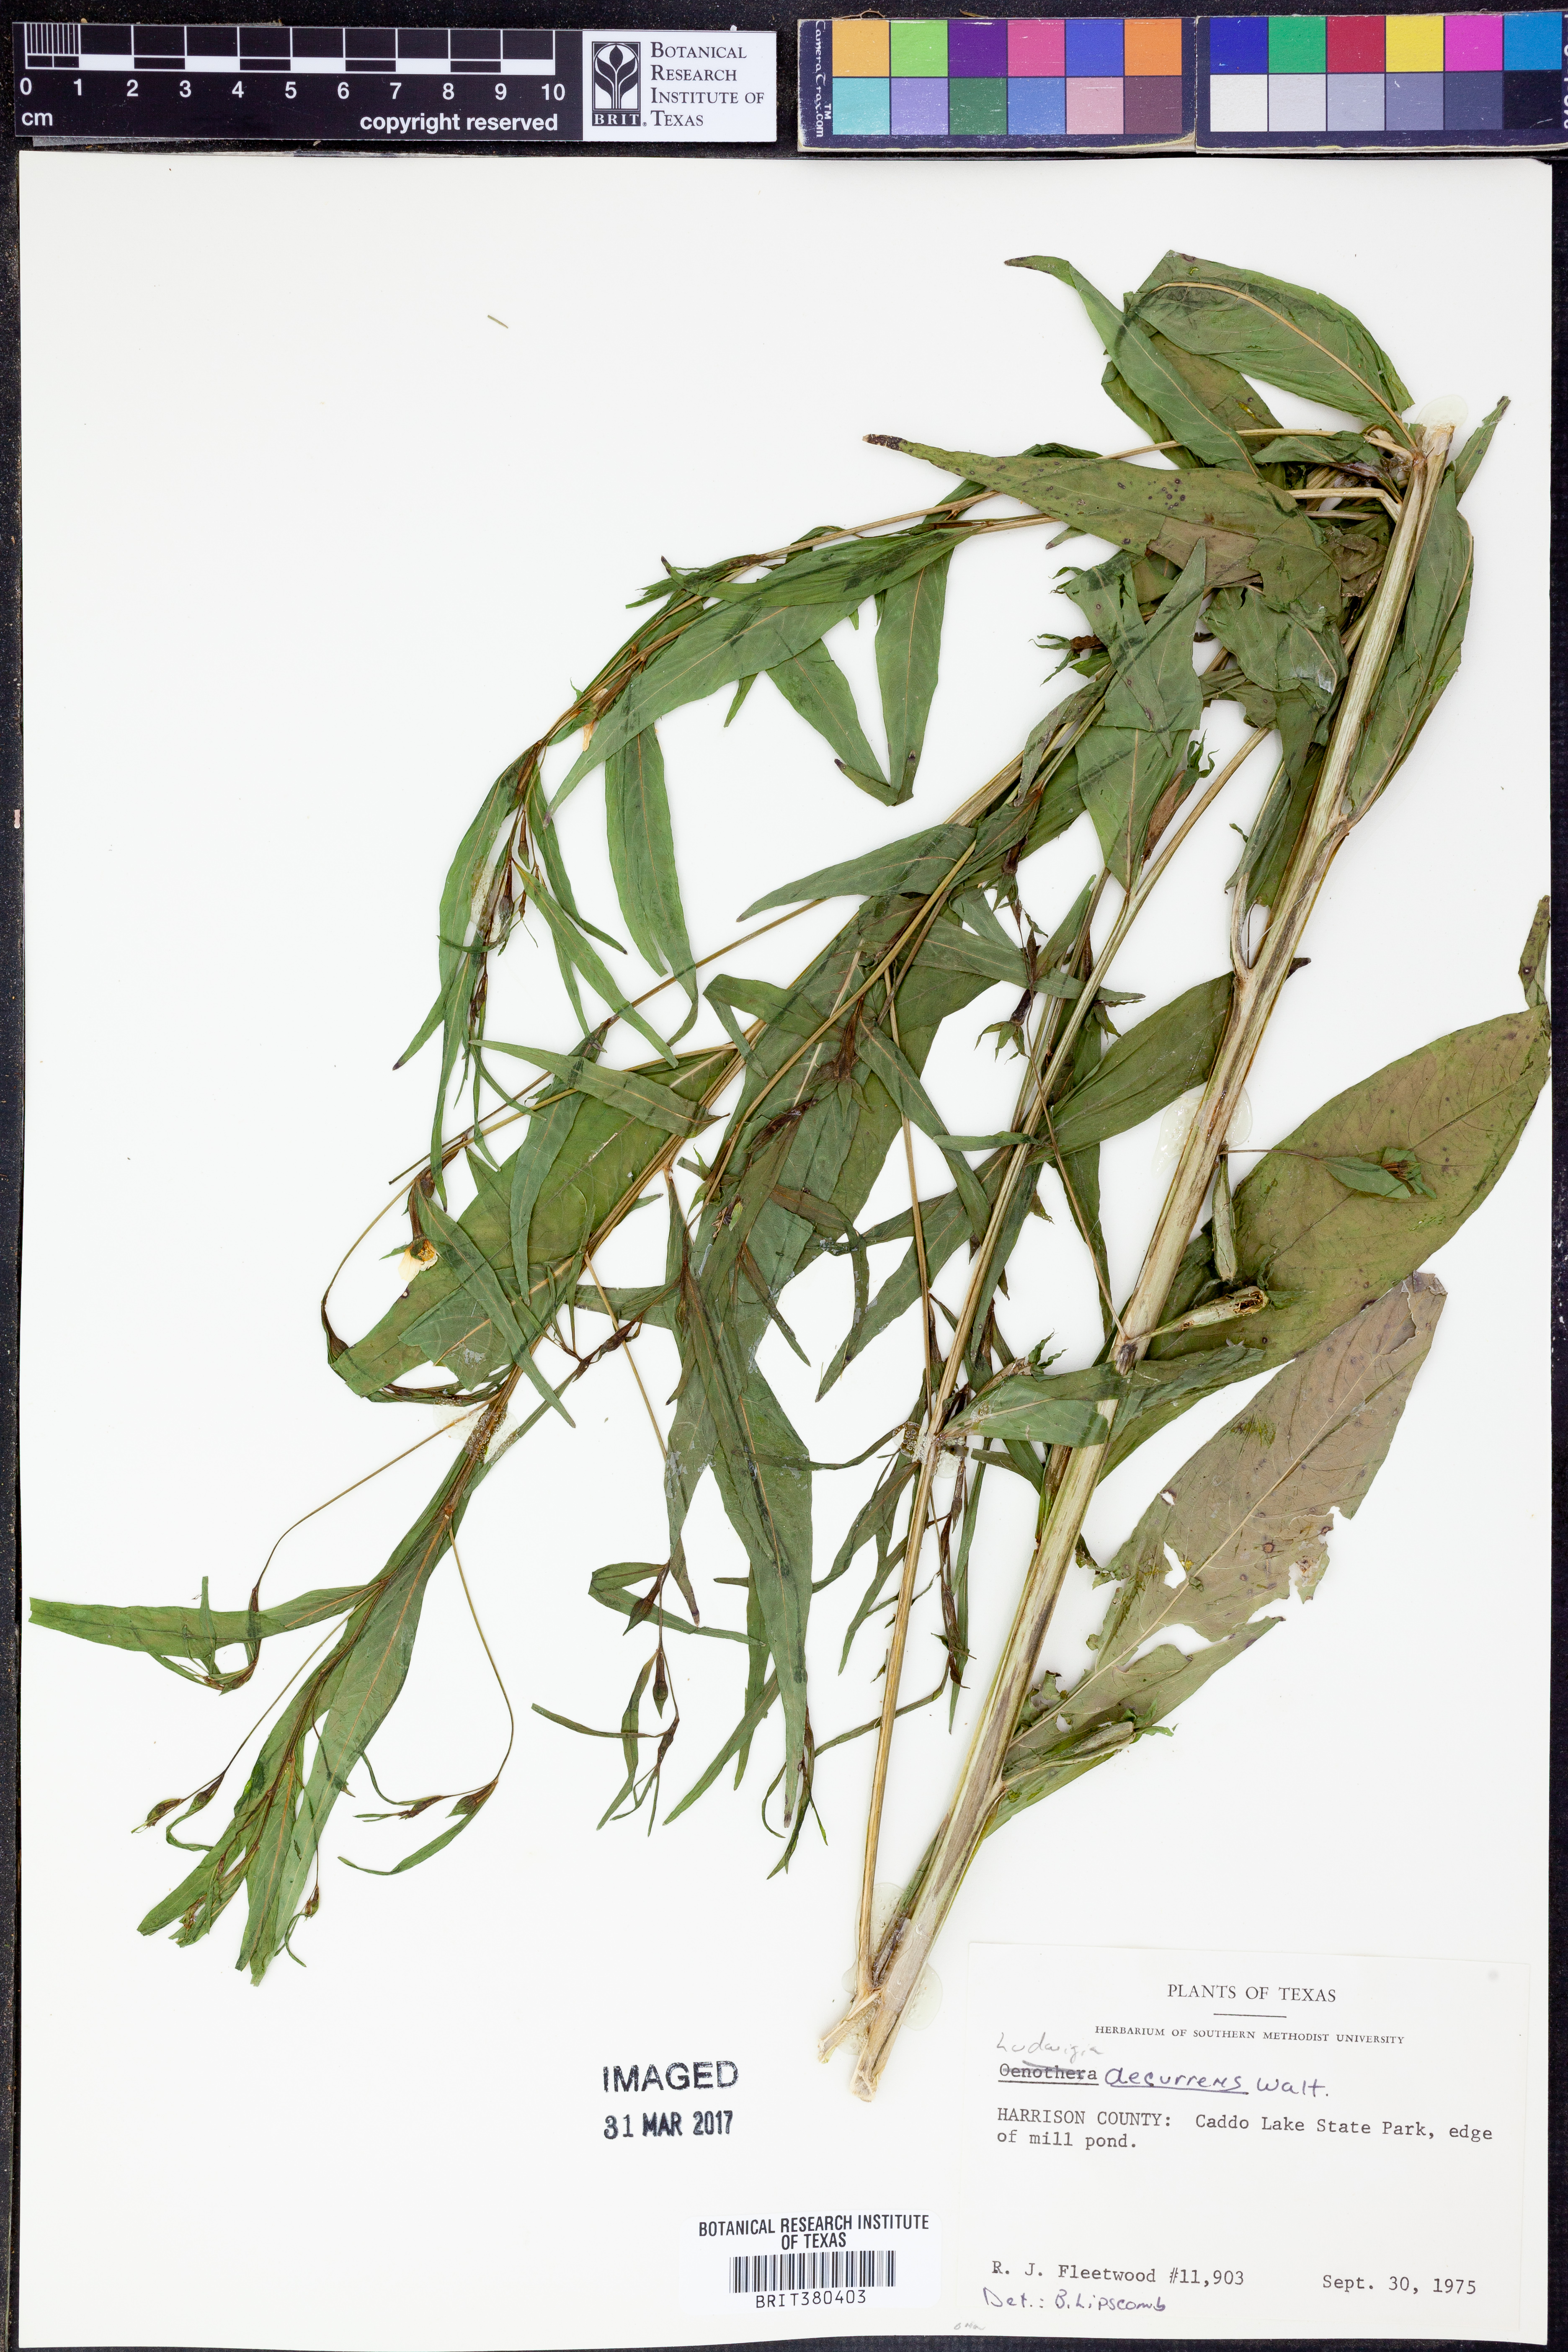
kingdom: Plantae
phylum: Tracheophyta
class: Magnoliopsida
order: Myrtales
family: Onagraceae
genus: Ludwigia
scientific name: Ludwigia decurrens
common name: Winged water-primrose
